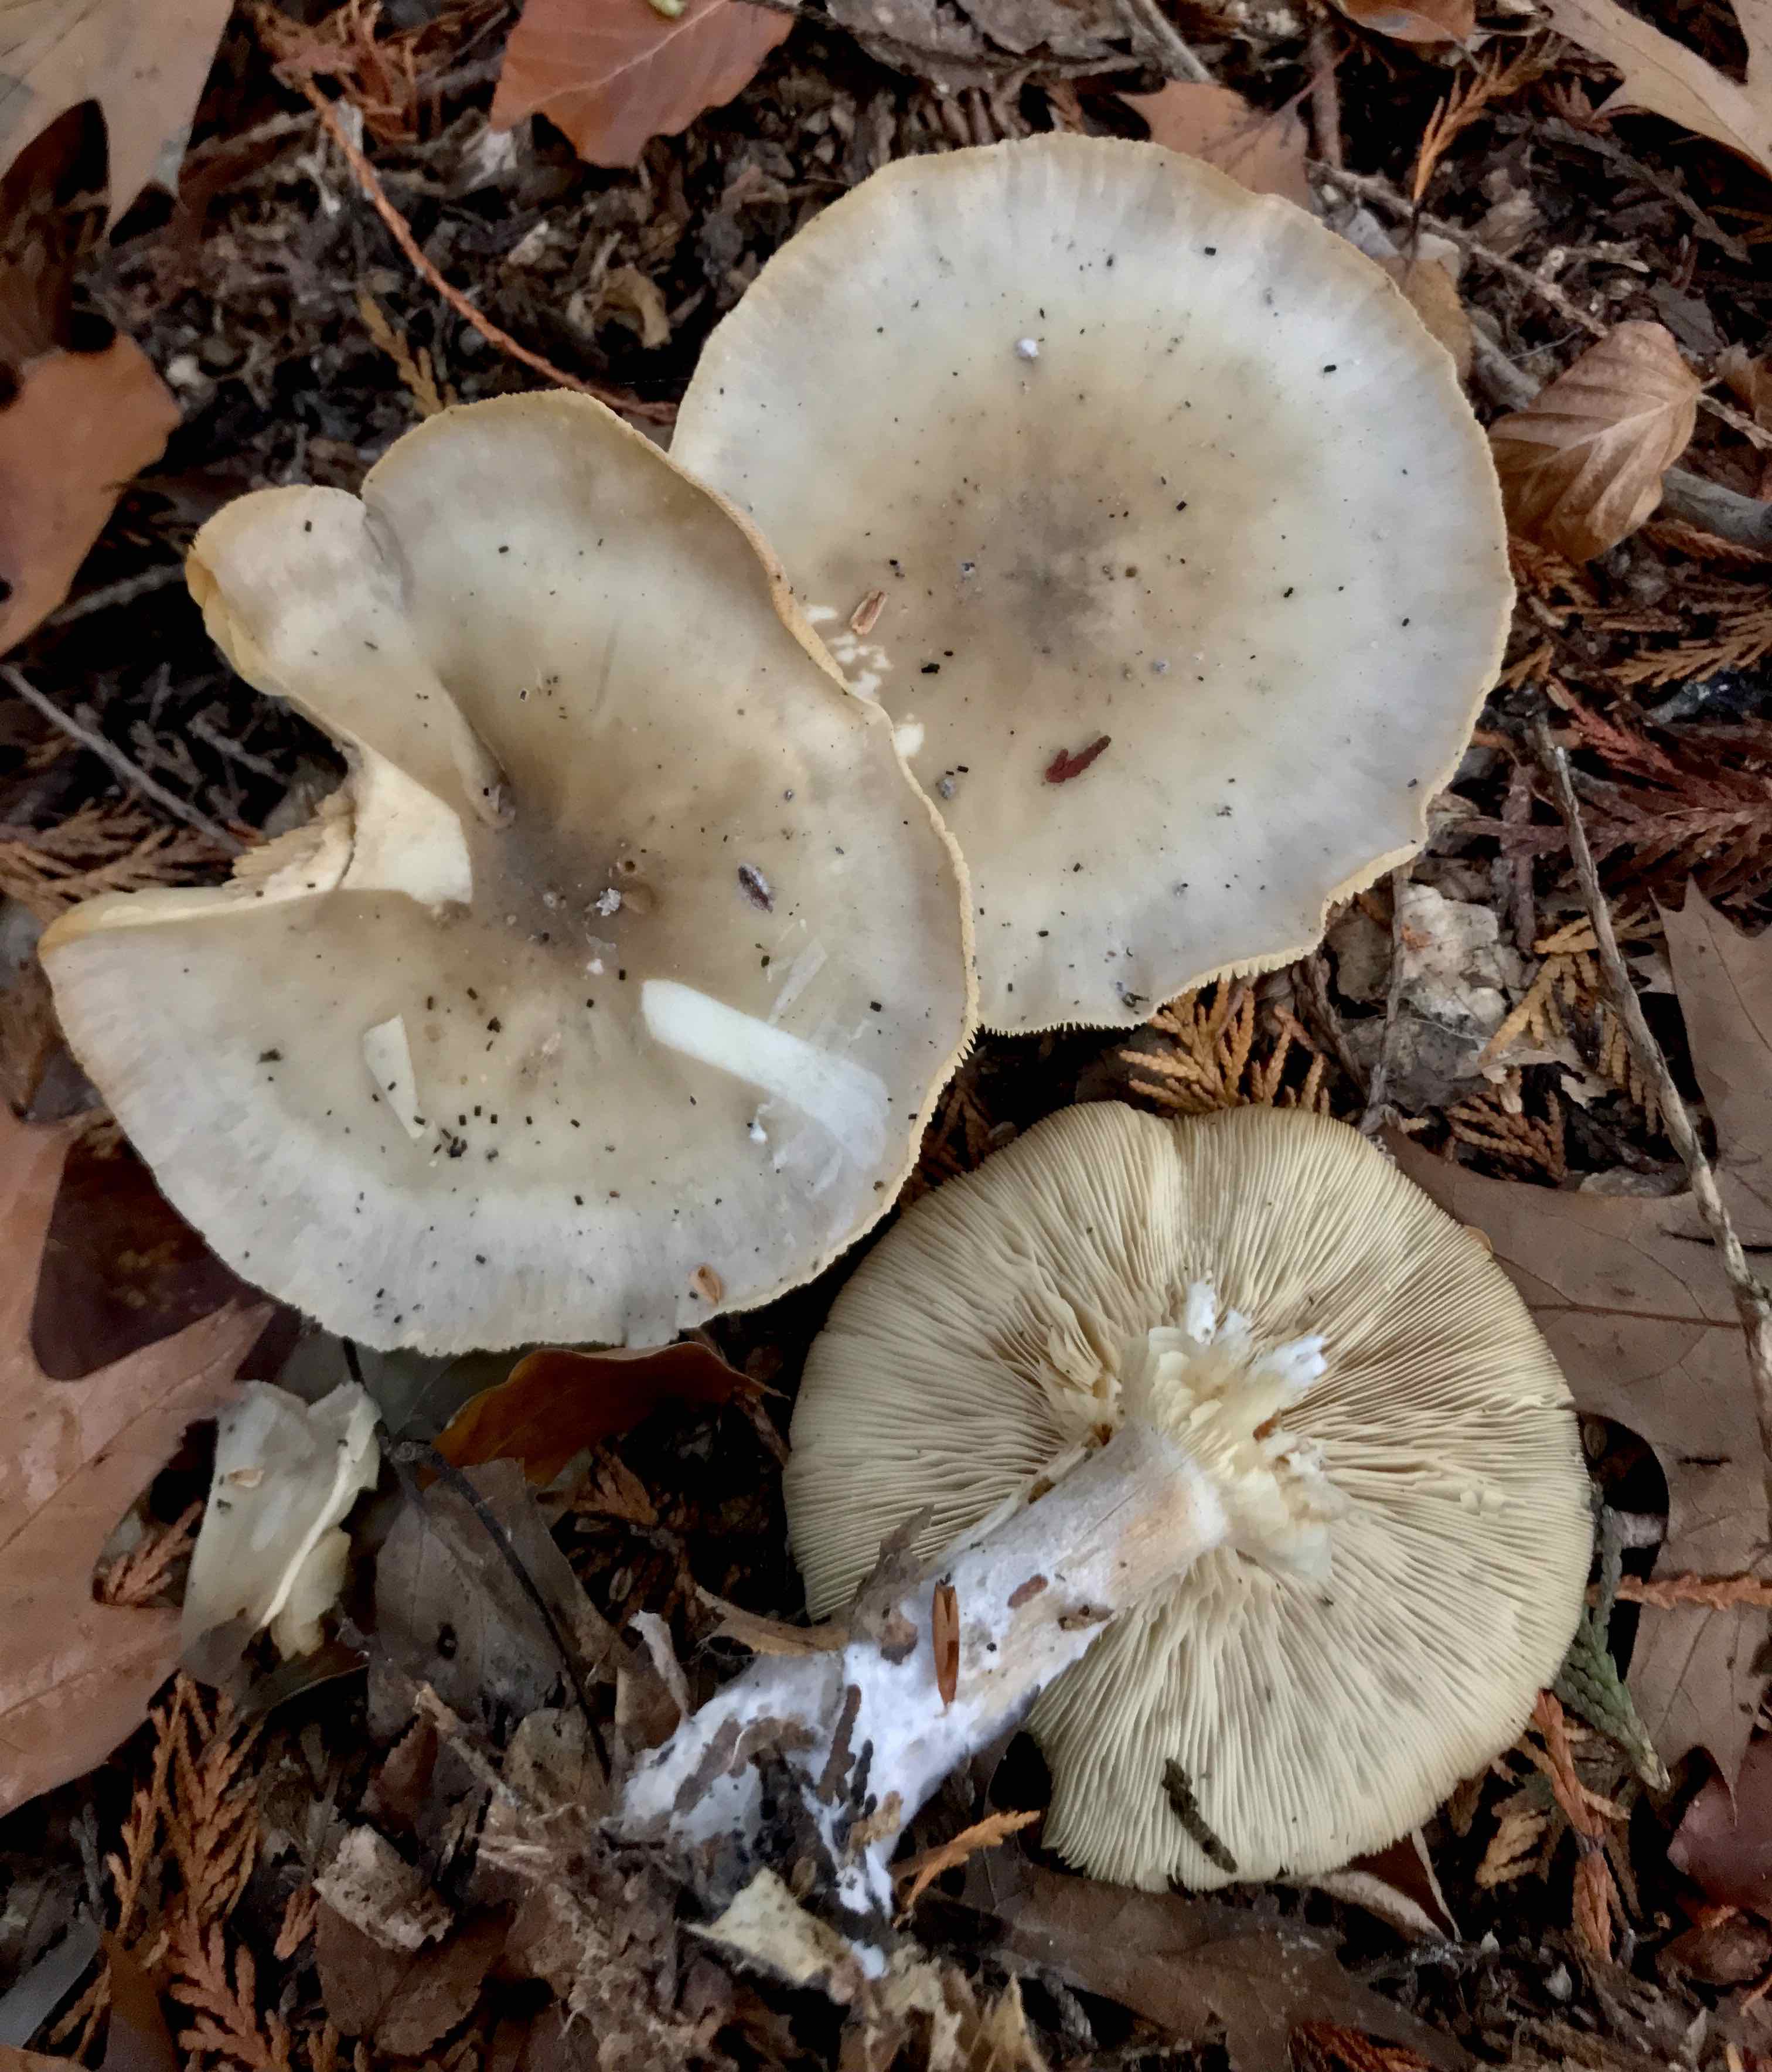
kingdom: Fungi
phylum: Basidiomycota
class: Agaricomycetes
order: Agaricales
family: Tricholomataceae
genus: Clitocybe
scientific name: Clitocybe nebularis
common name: tåge-tragthat
